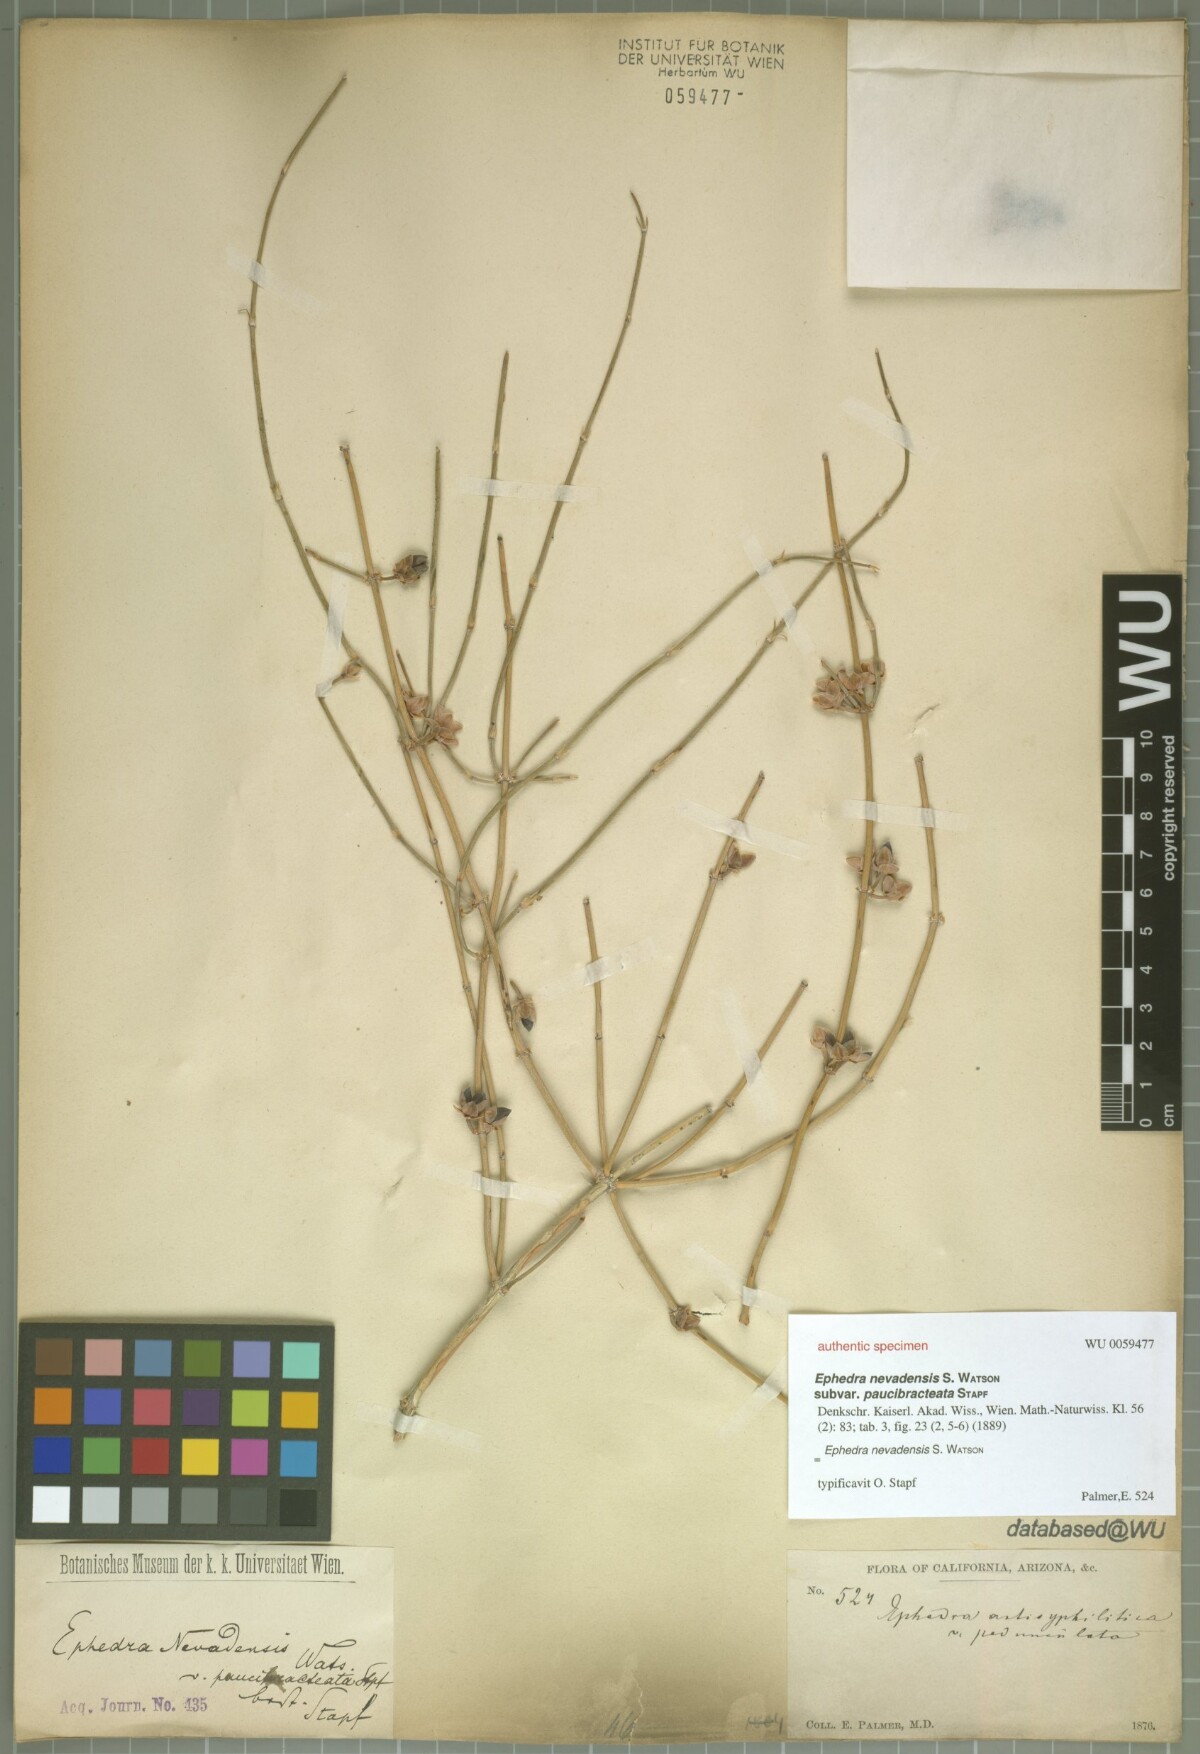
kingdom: Plantae
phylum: Tracheophyta
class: Gnetopsida
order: Ephedrales
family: Ephedraceae
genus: Ephedra
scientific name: Ephedra nevadensis
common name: Gray ephedra
